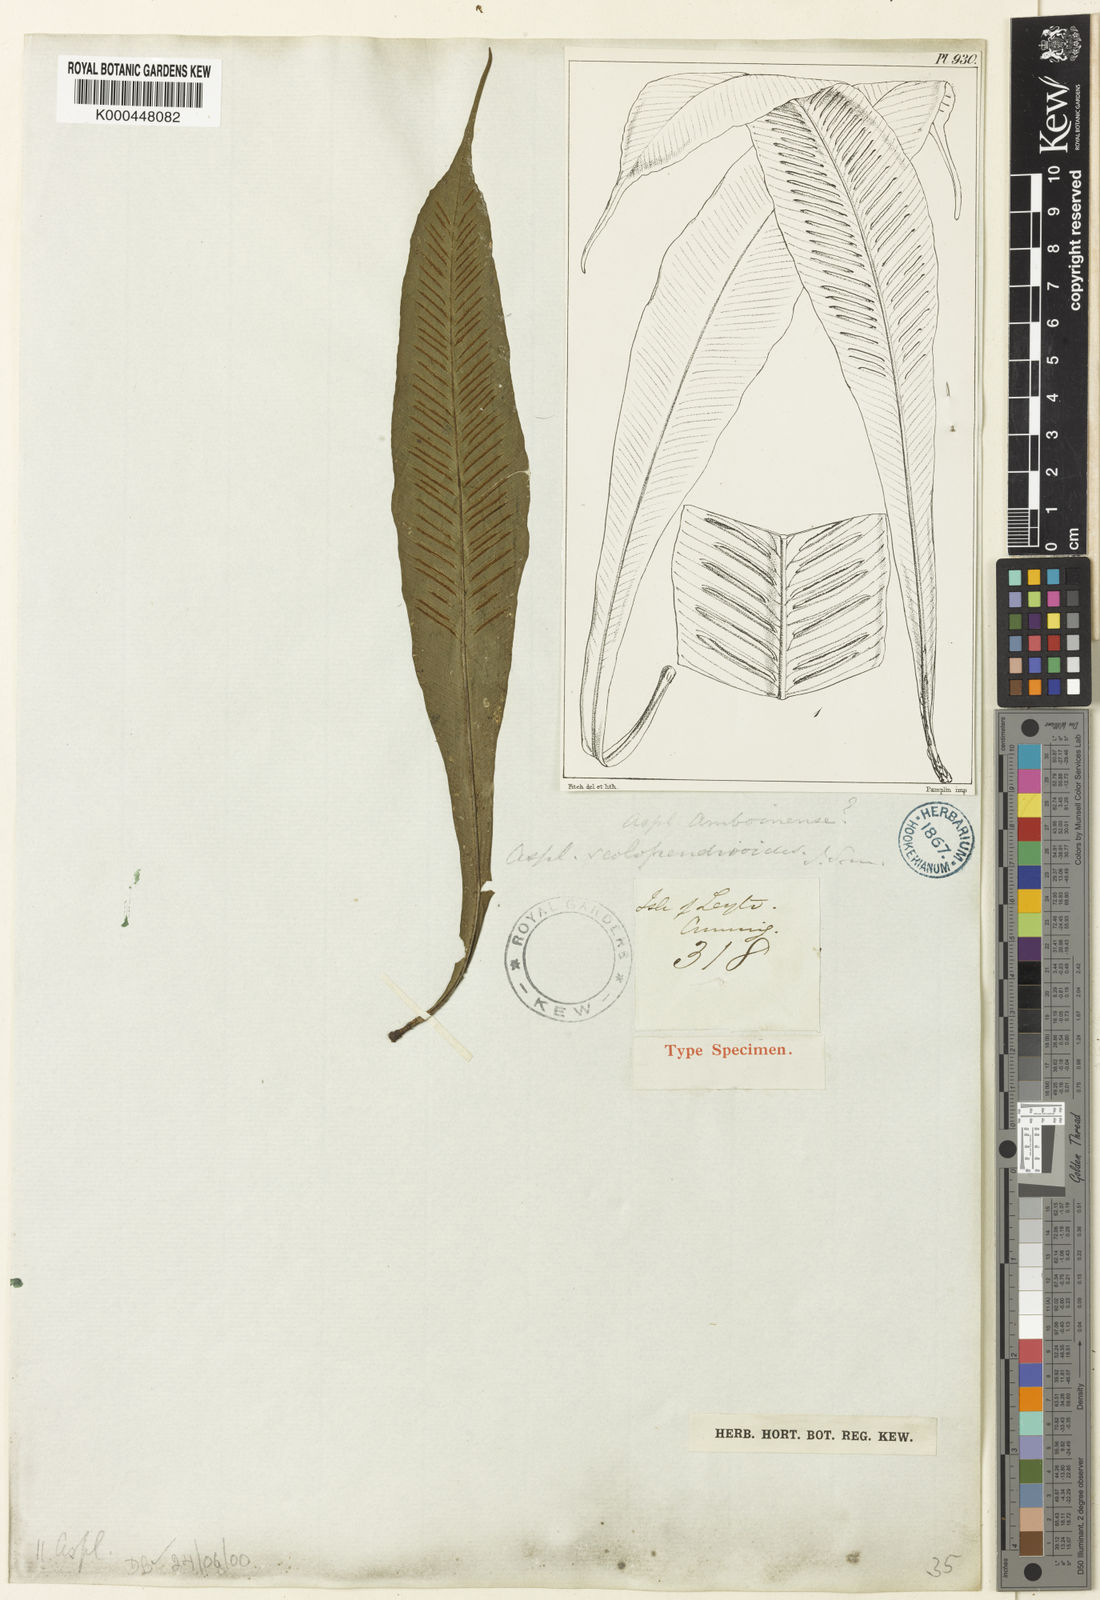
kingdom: Plantae
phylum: Tracheophyta
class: Polypodiopsida
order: Polypodiales
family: Aspleniaceae
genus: Asplenium
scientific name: Asplenium
